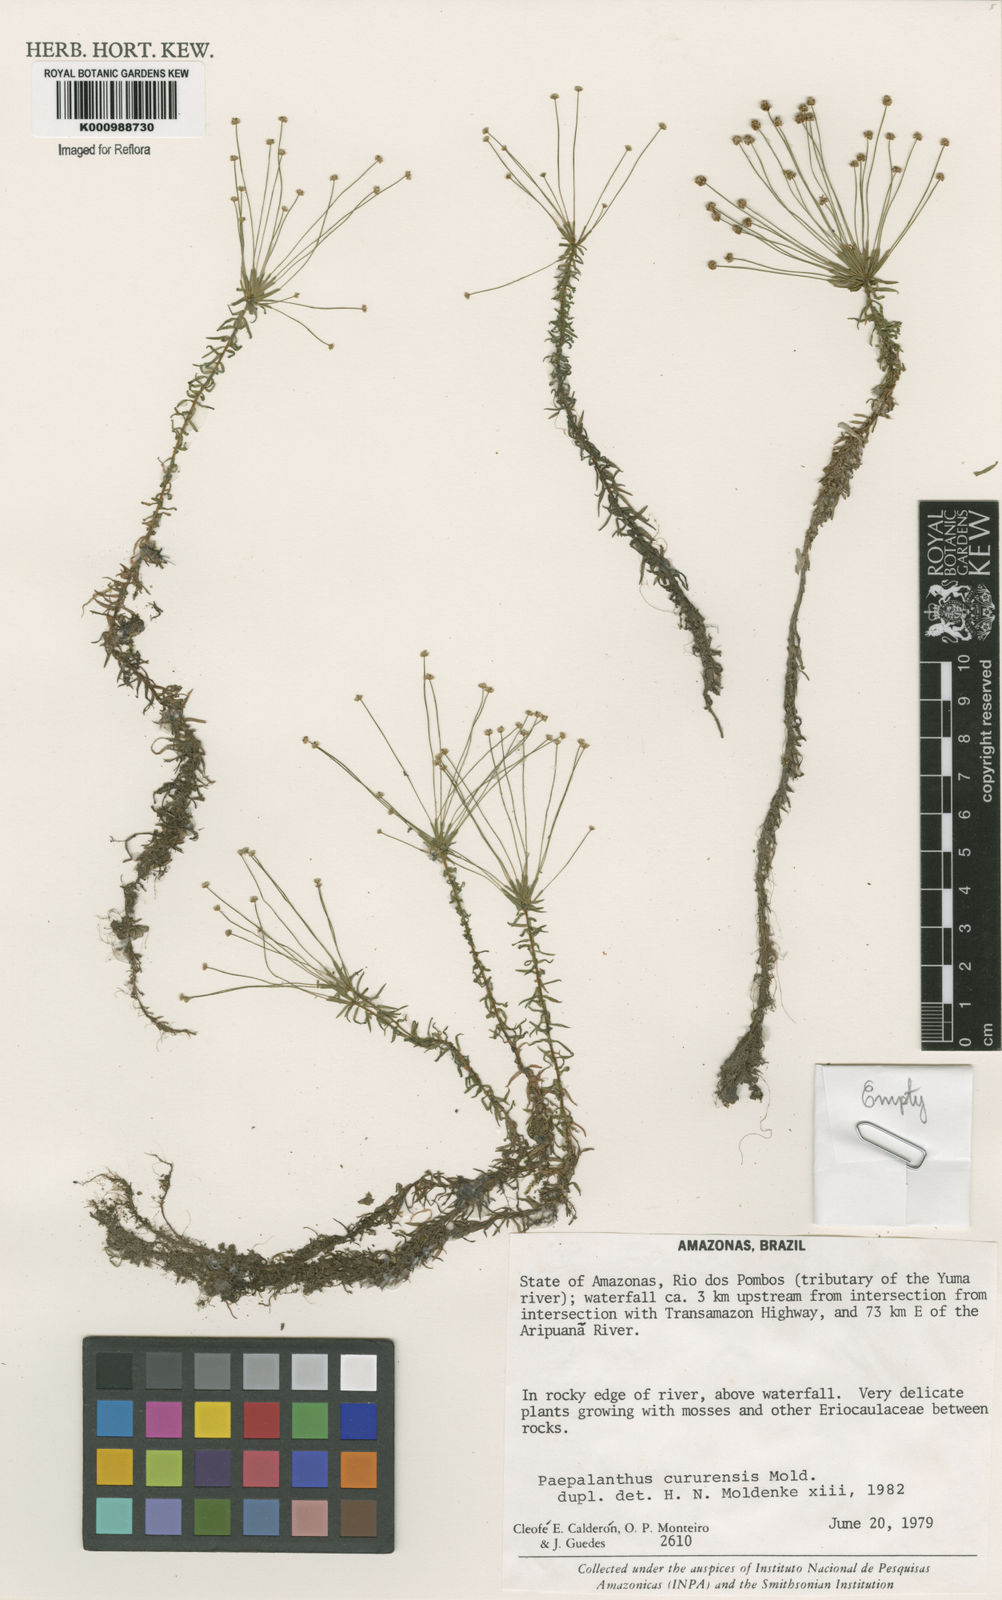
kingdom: Plantae
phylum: Tracheophyta
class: Liliopsida
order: Poales
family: Eriocaulaceae
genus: Paepalanthus
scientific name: Paepalanthus cururensis
